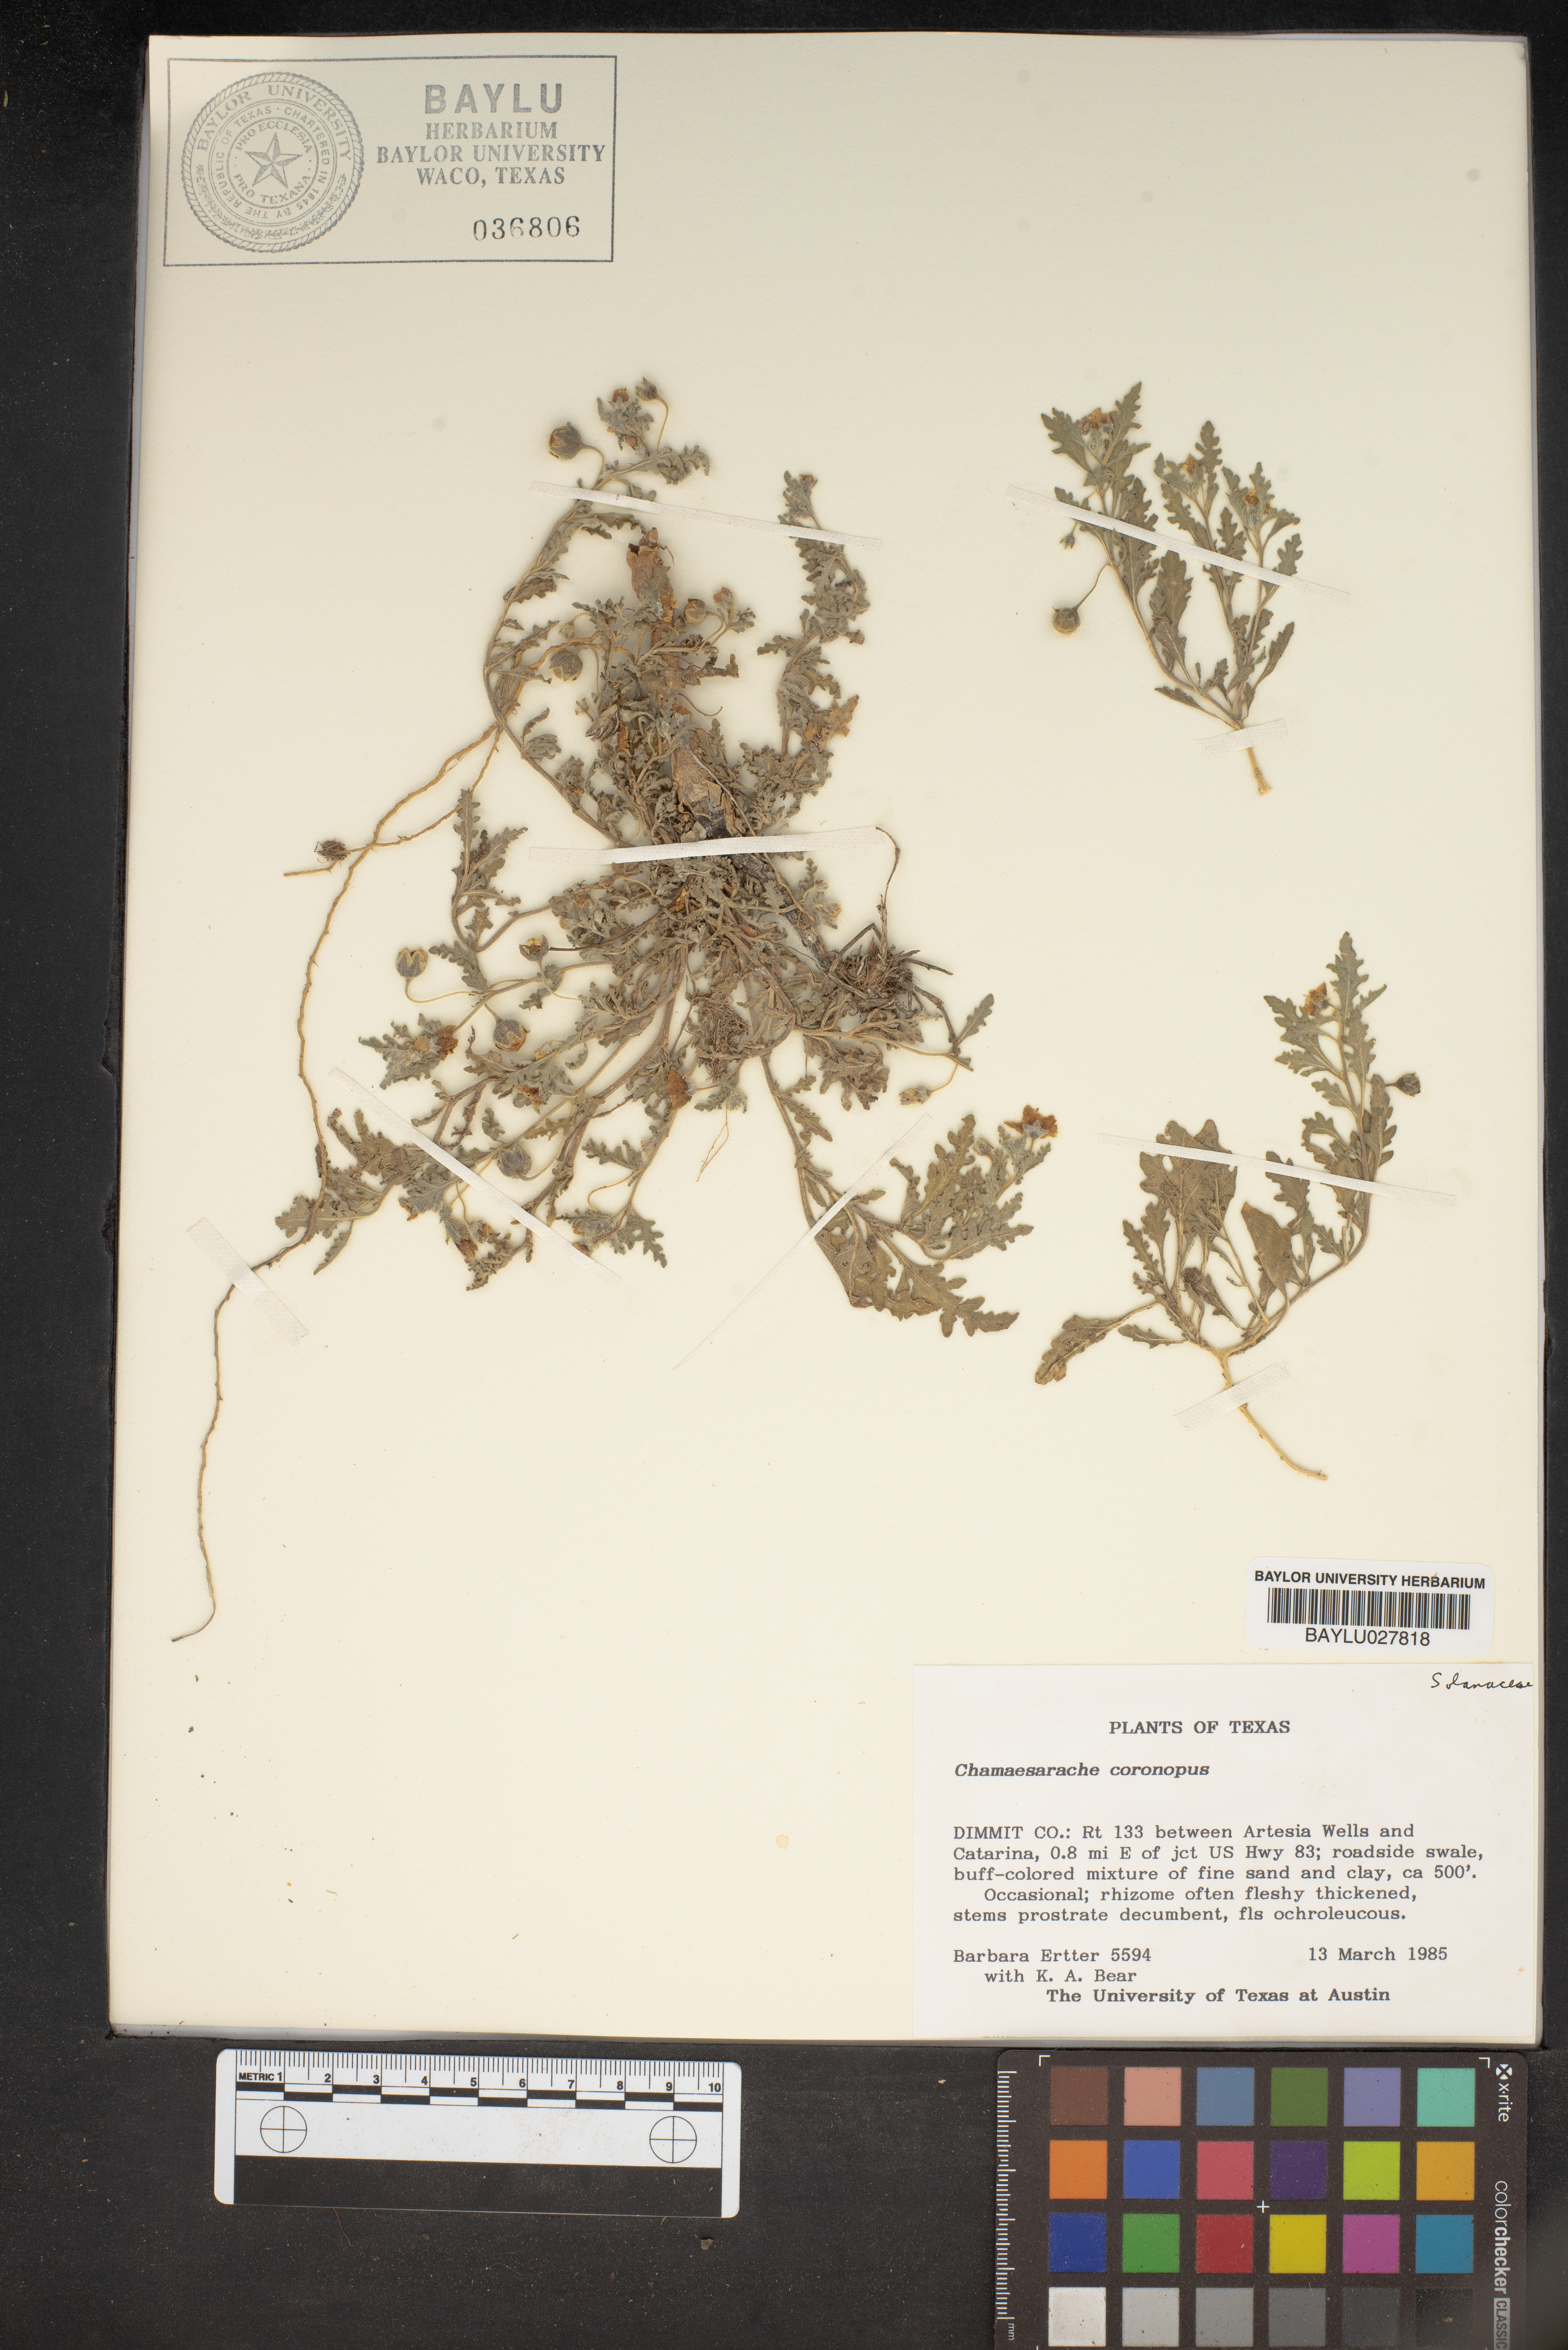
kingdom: Plantae
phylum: Tracheophyta
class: Magnoliopsida
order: Solanales
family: Solanaceae
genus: Chamaesaracha
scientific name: Chamaesaracha coronopus
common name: Smooth chamaesaracha
